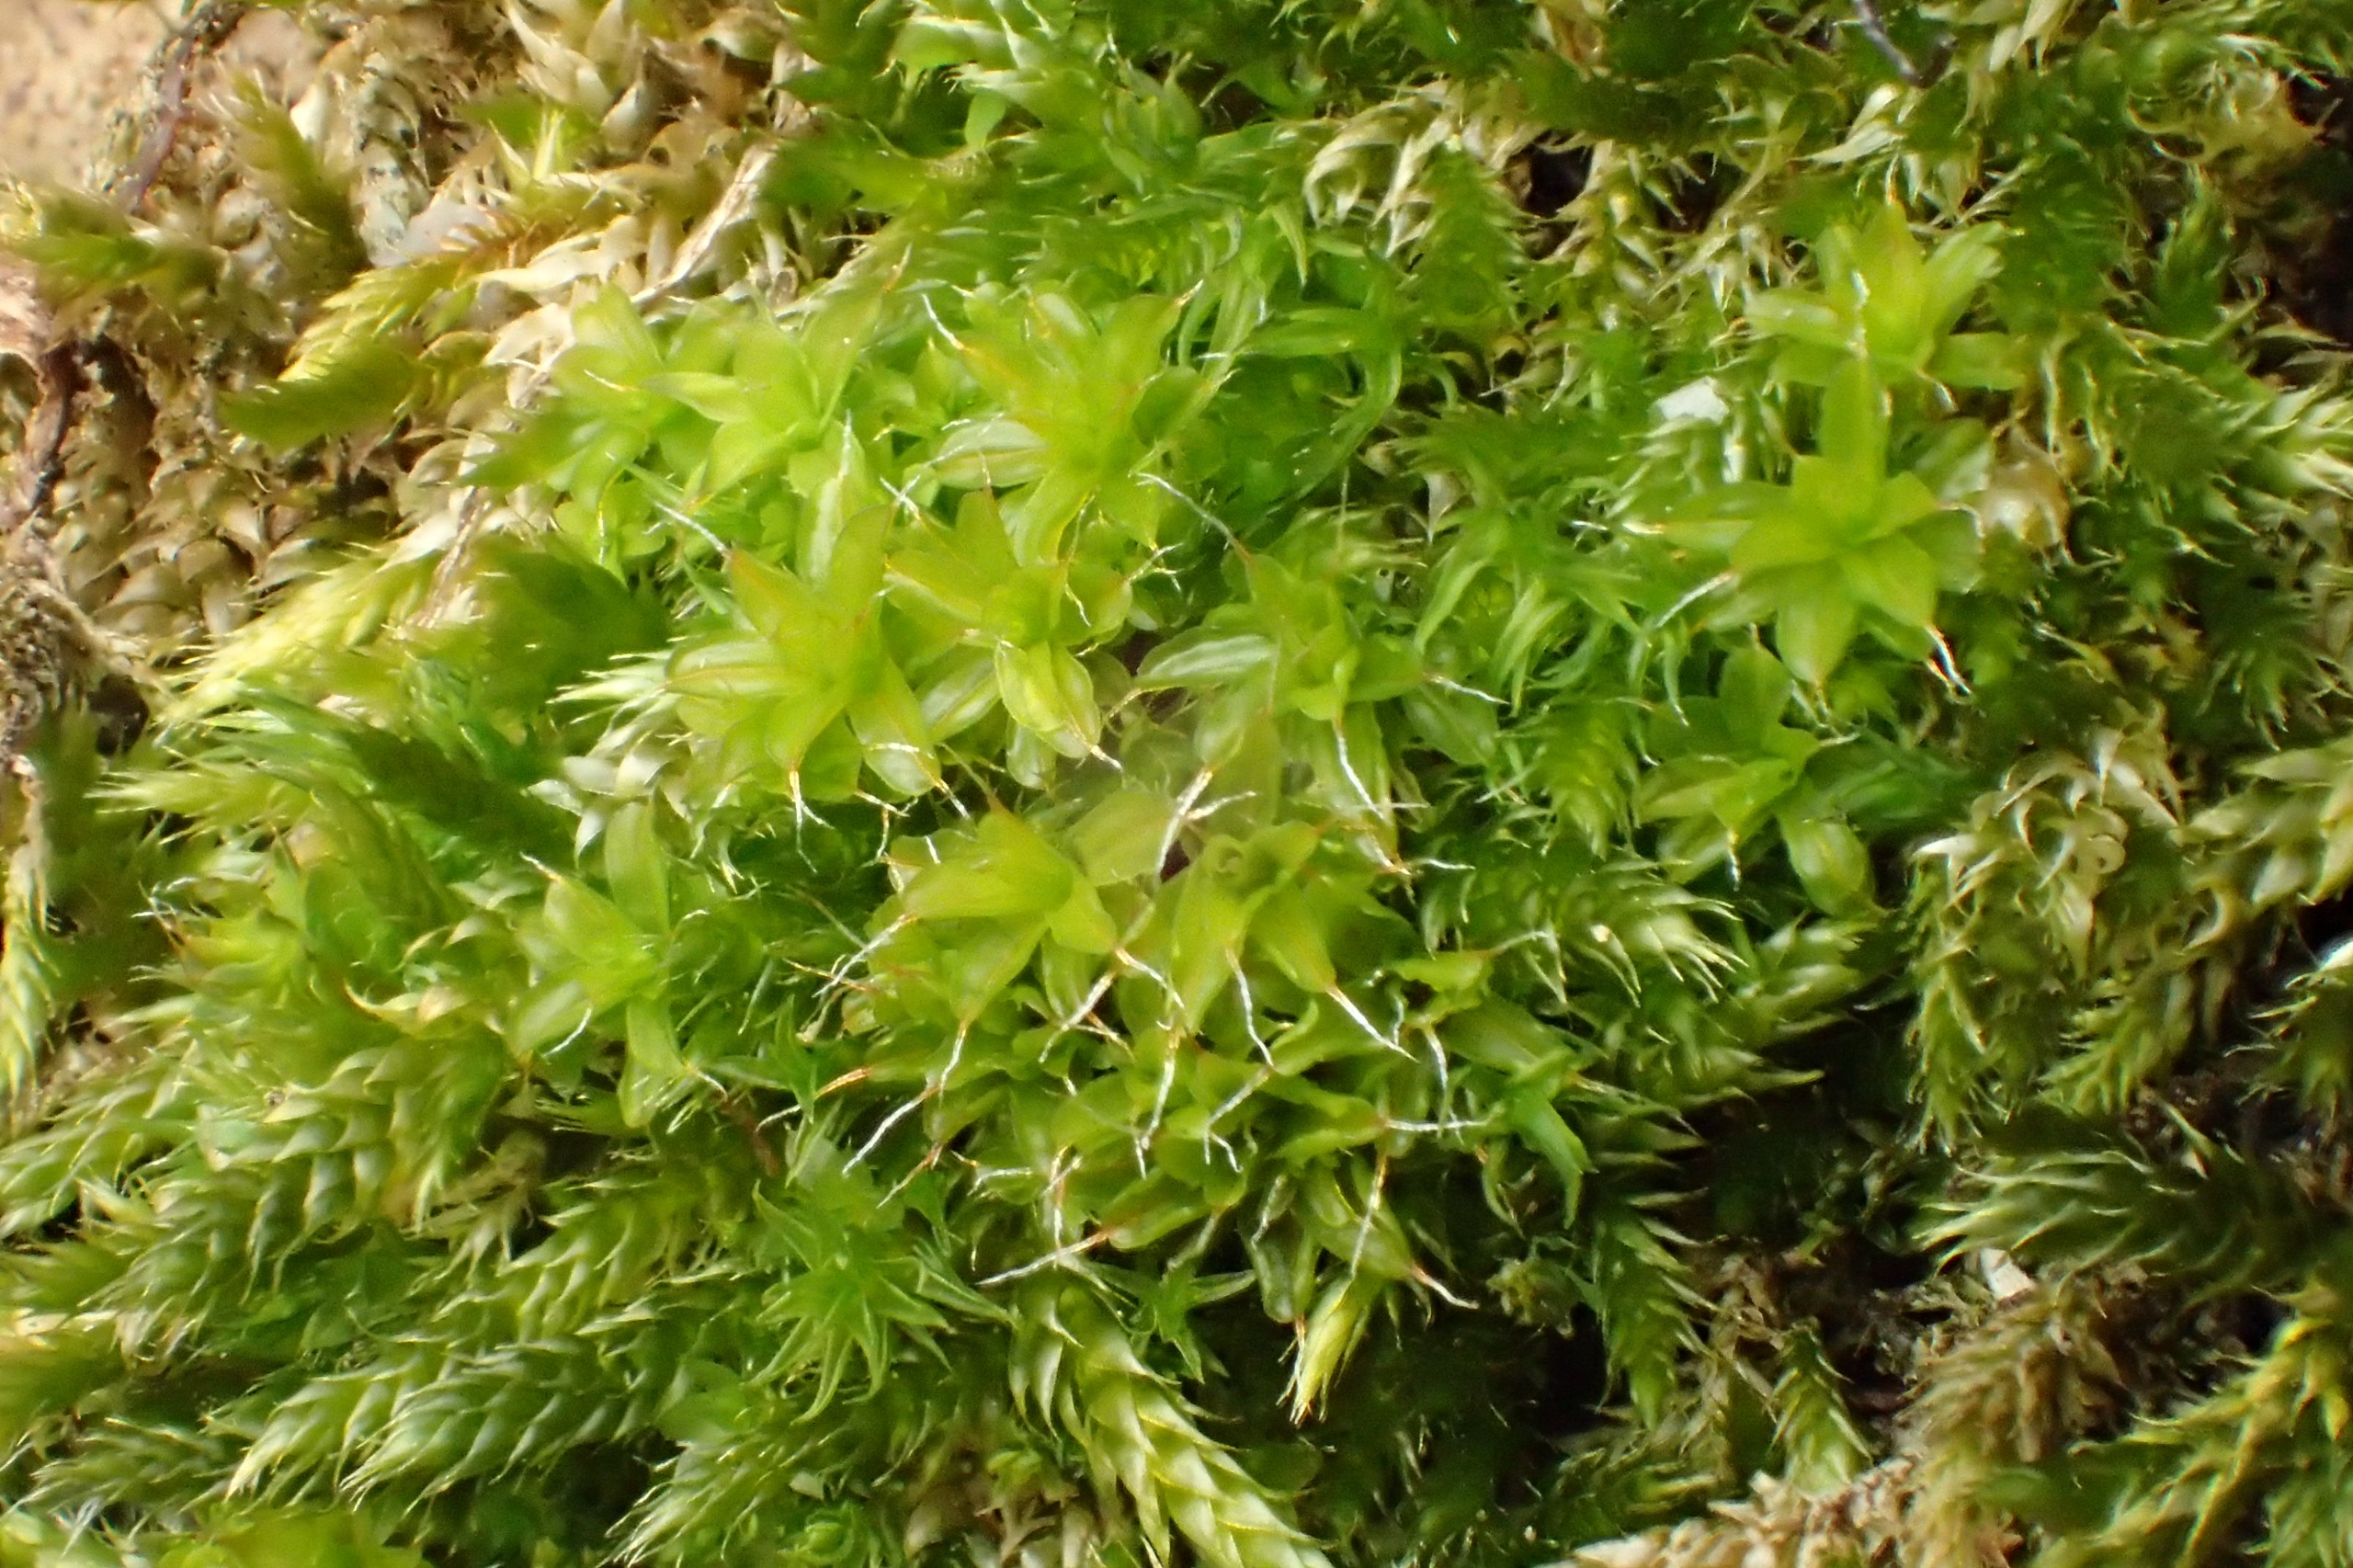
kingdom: Plantae
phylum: Bryophyta
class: Bryopsida
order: Pottiales
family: Pottiaceae
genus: Syntrichia
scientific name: Syntrichia virescens
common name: Grøn hårstjerne
